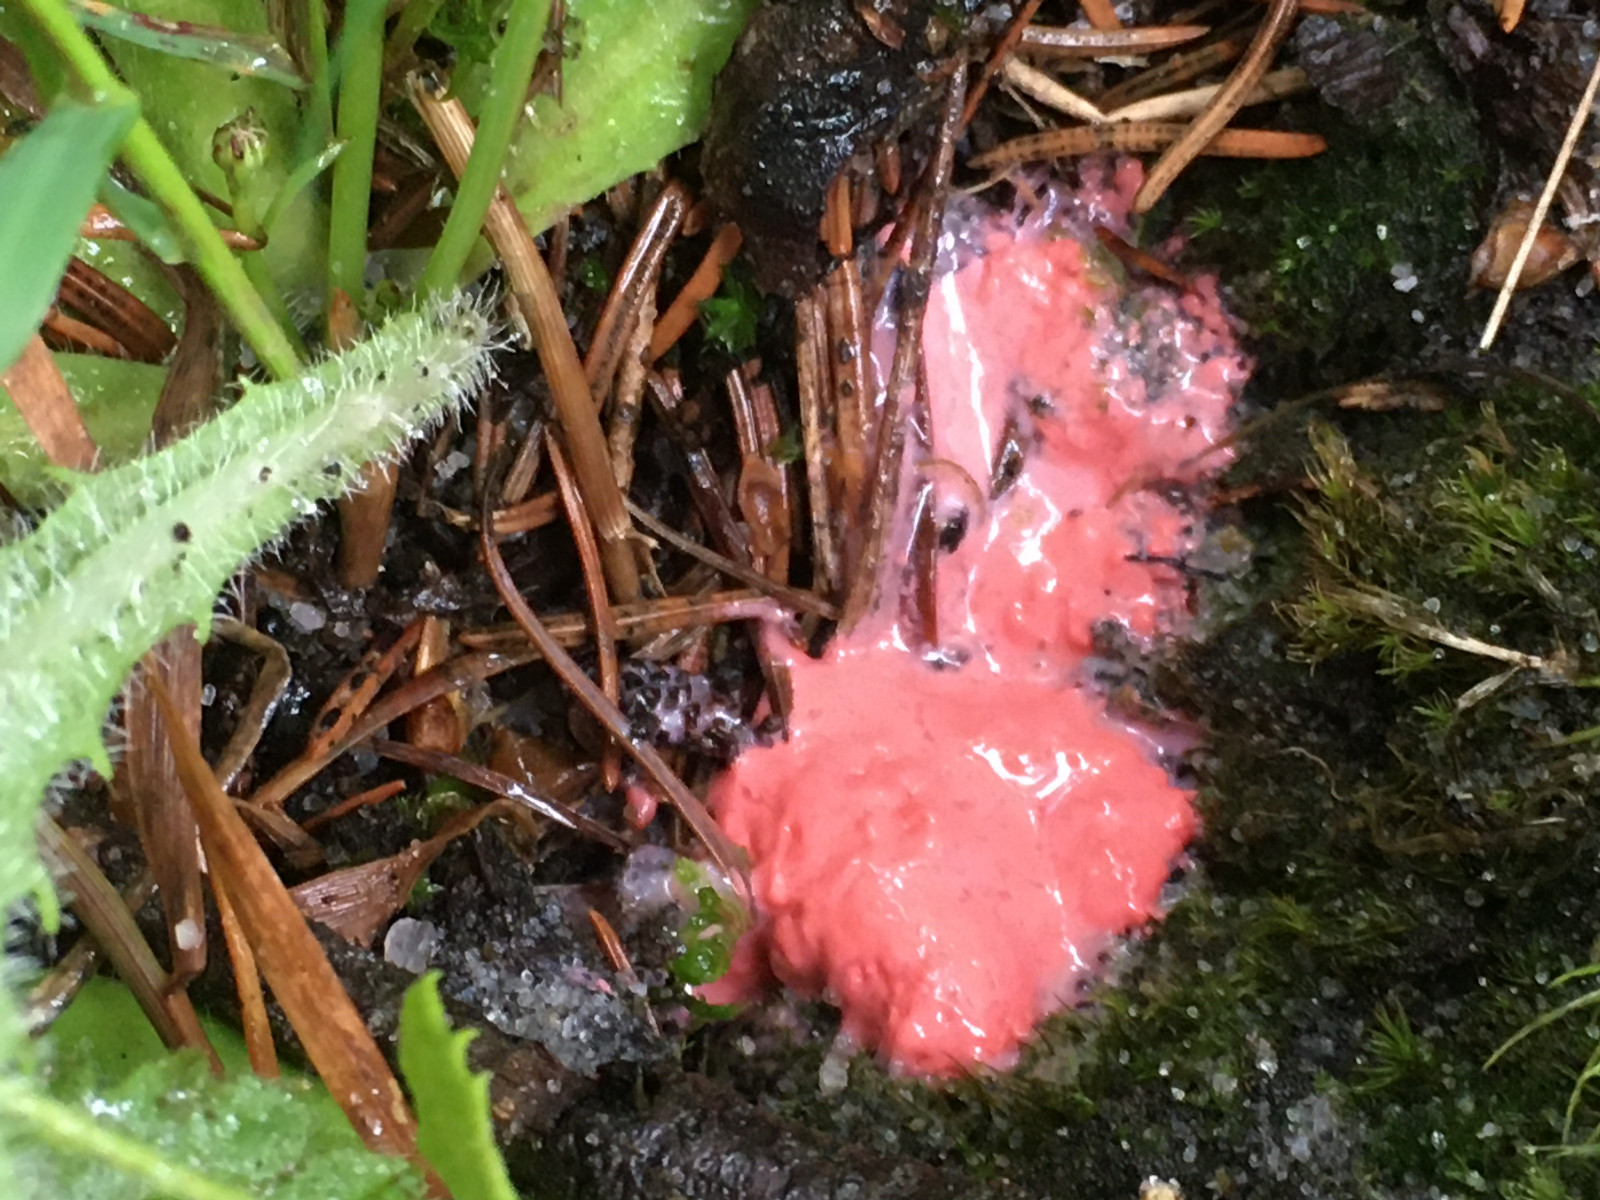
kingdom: Protozoa
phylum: Mycetozoa
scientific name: Mycetozoa
